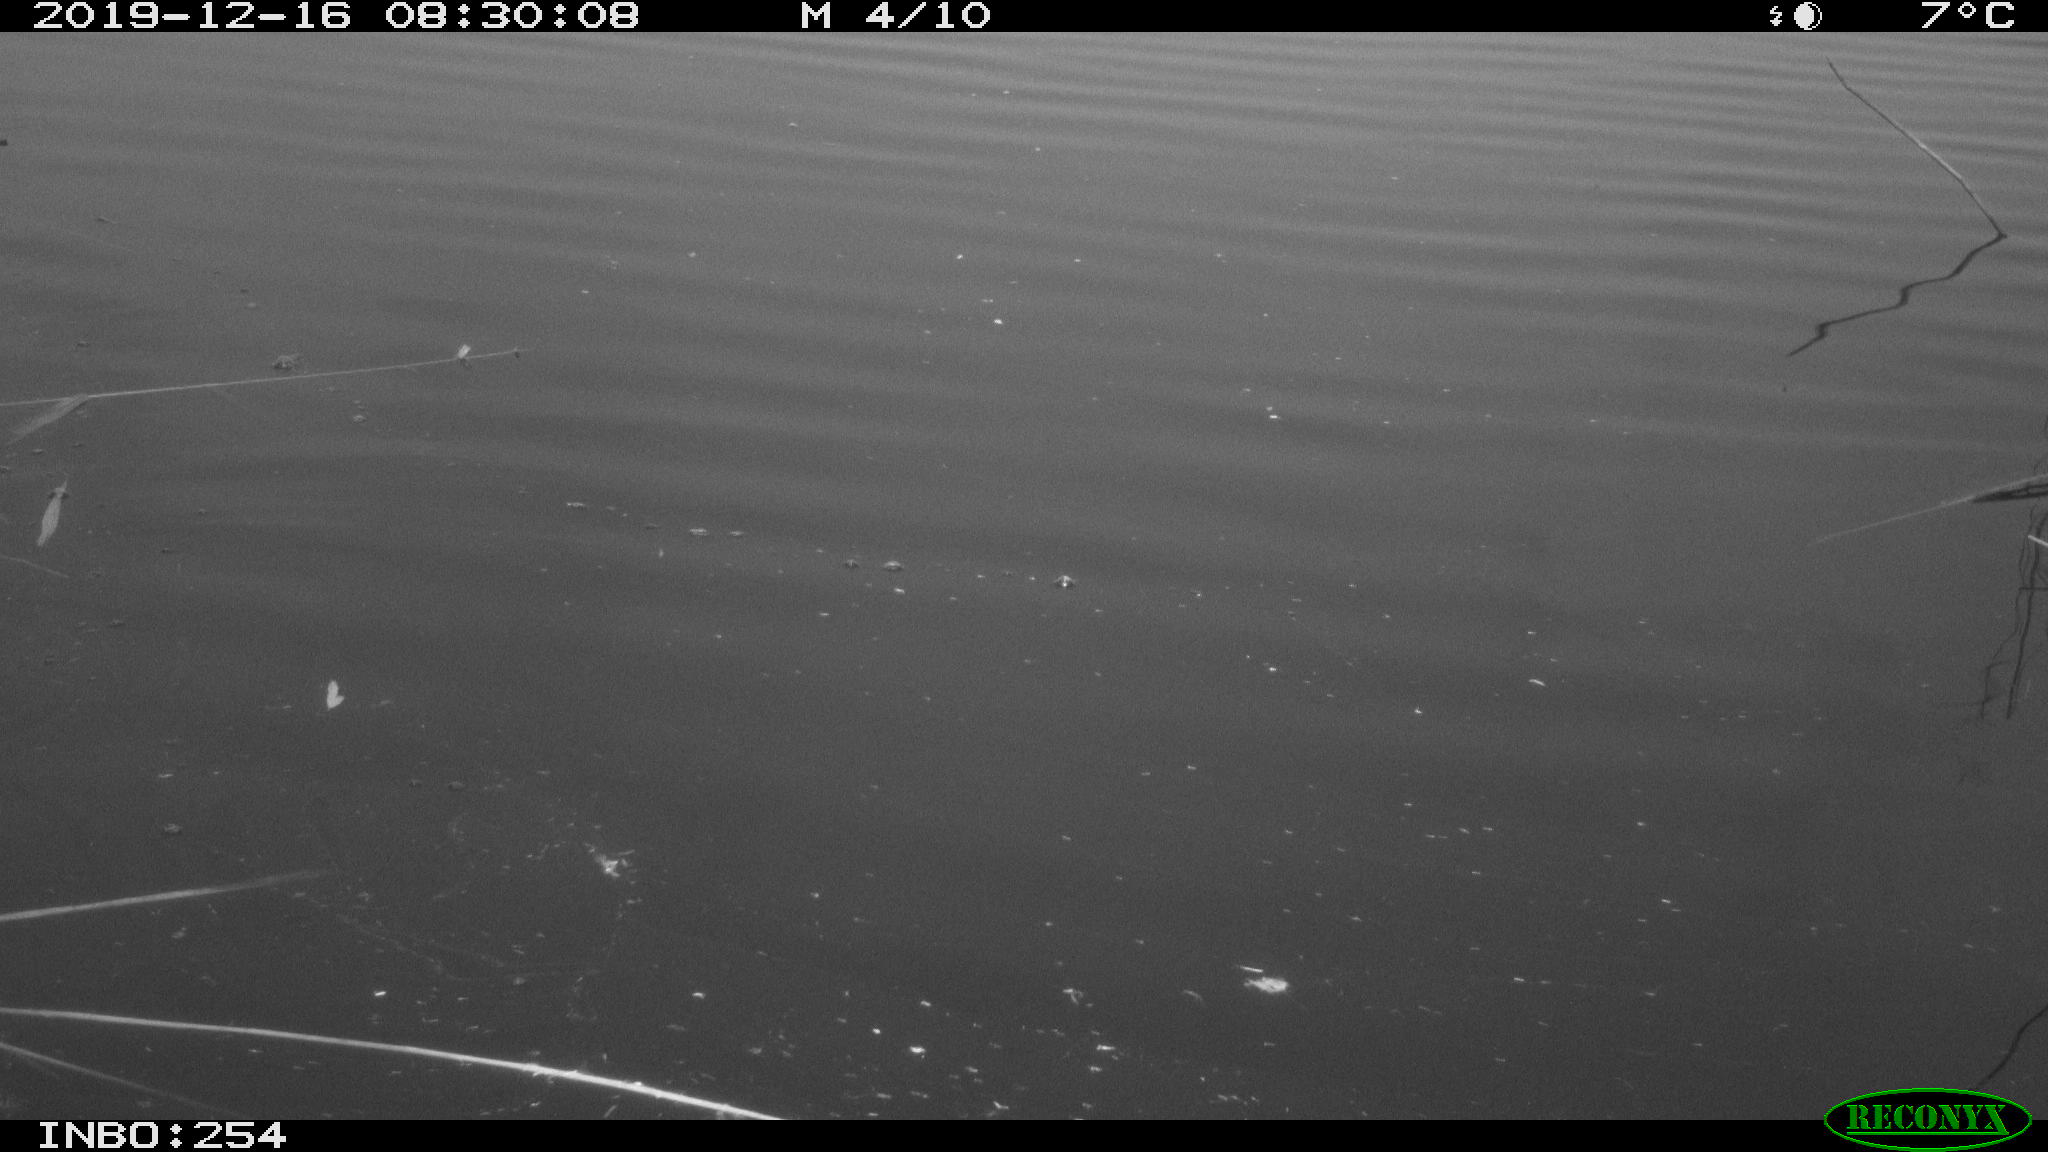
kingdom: Animalia
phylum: Chordata
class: Aves
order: Gruiformes
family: Rallidae
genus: Gallinula
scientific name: Gallinula chloropus
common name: Common moorhen
